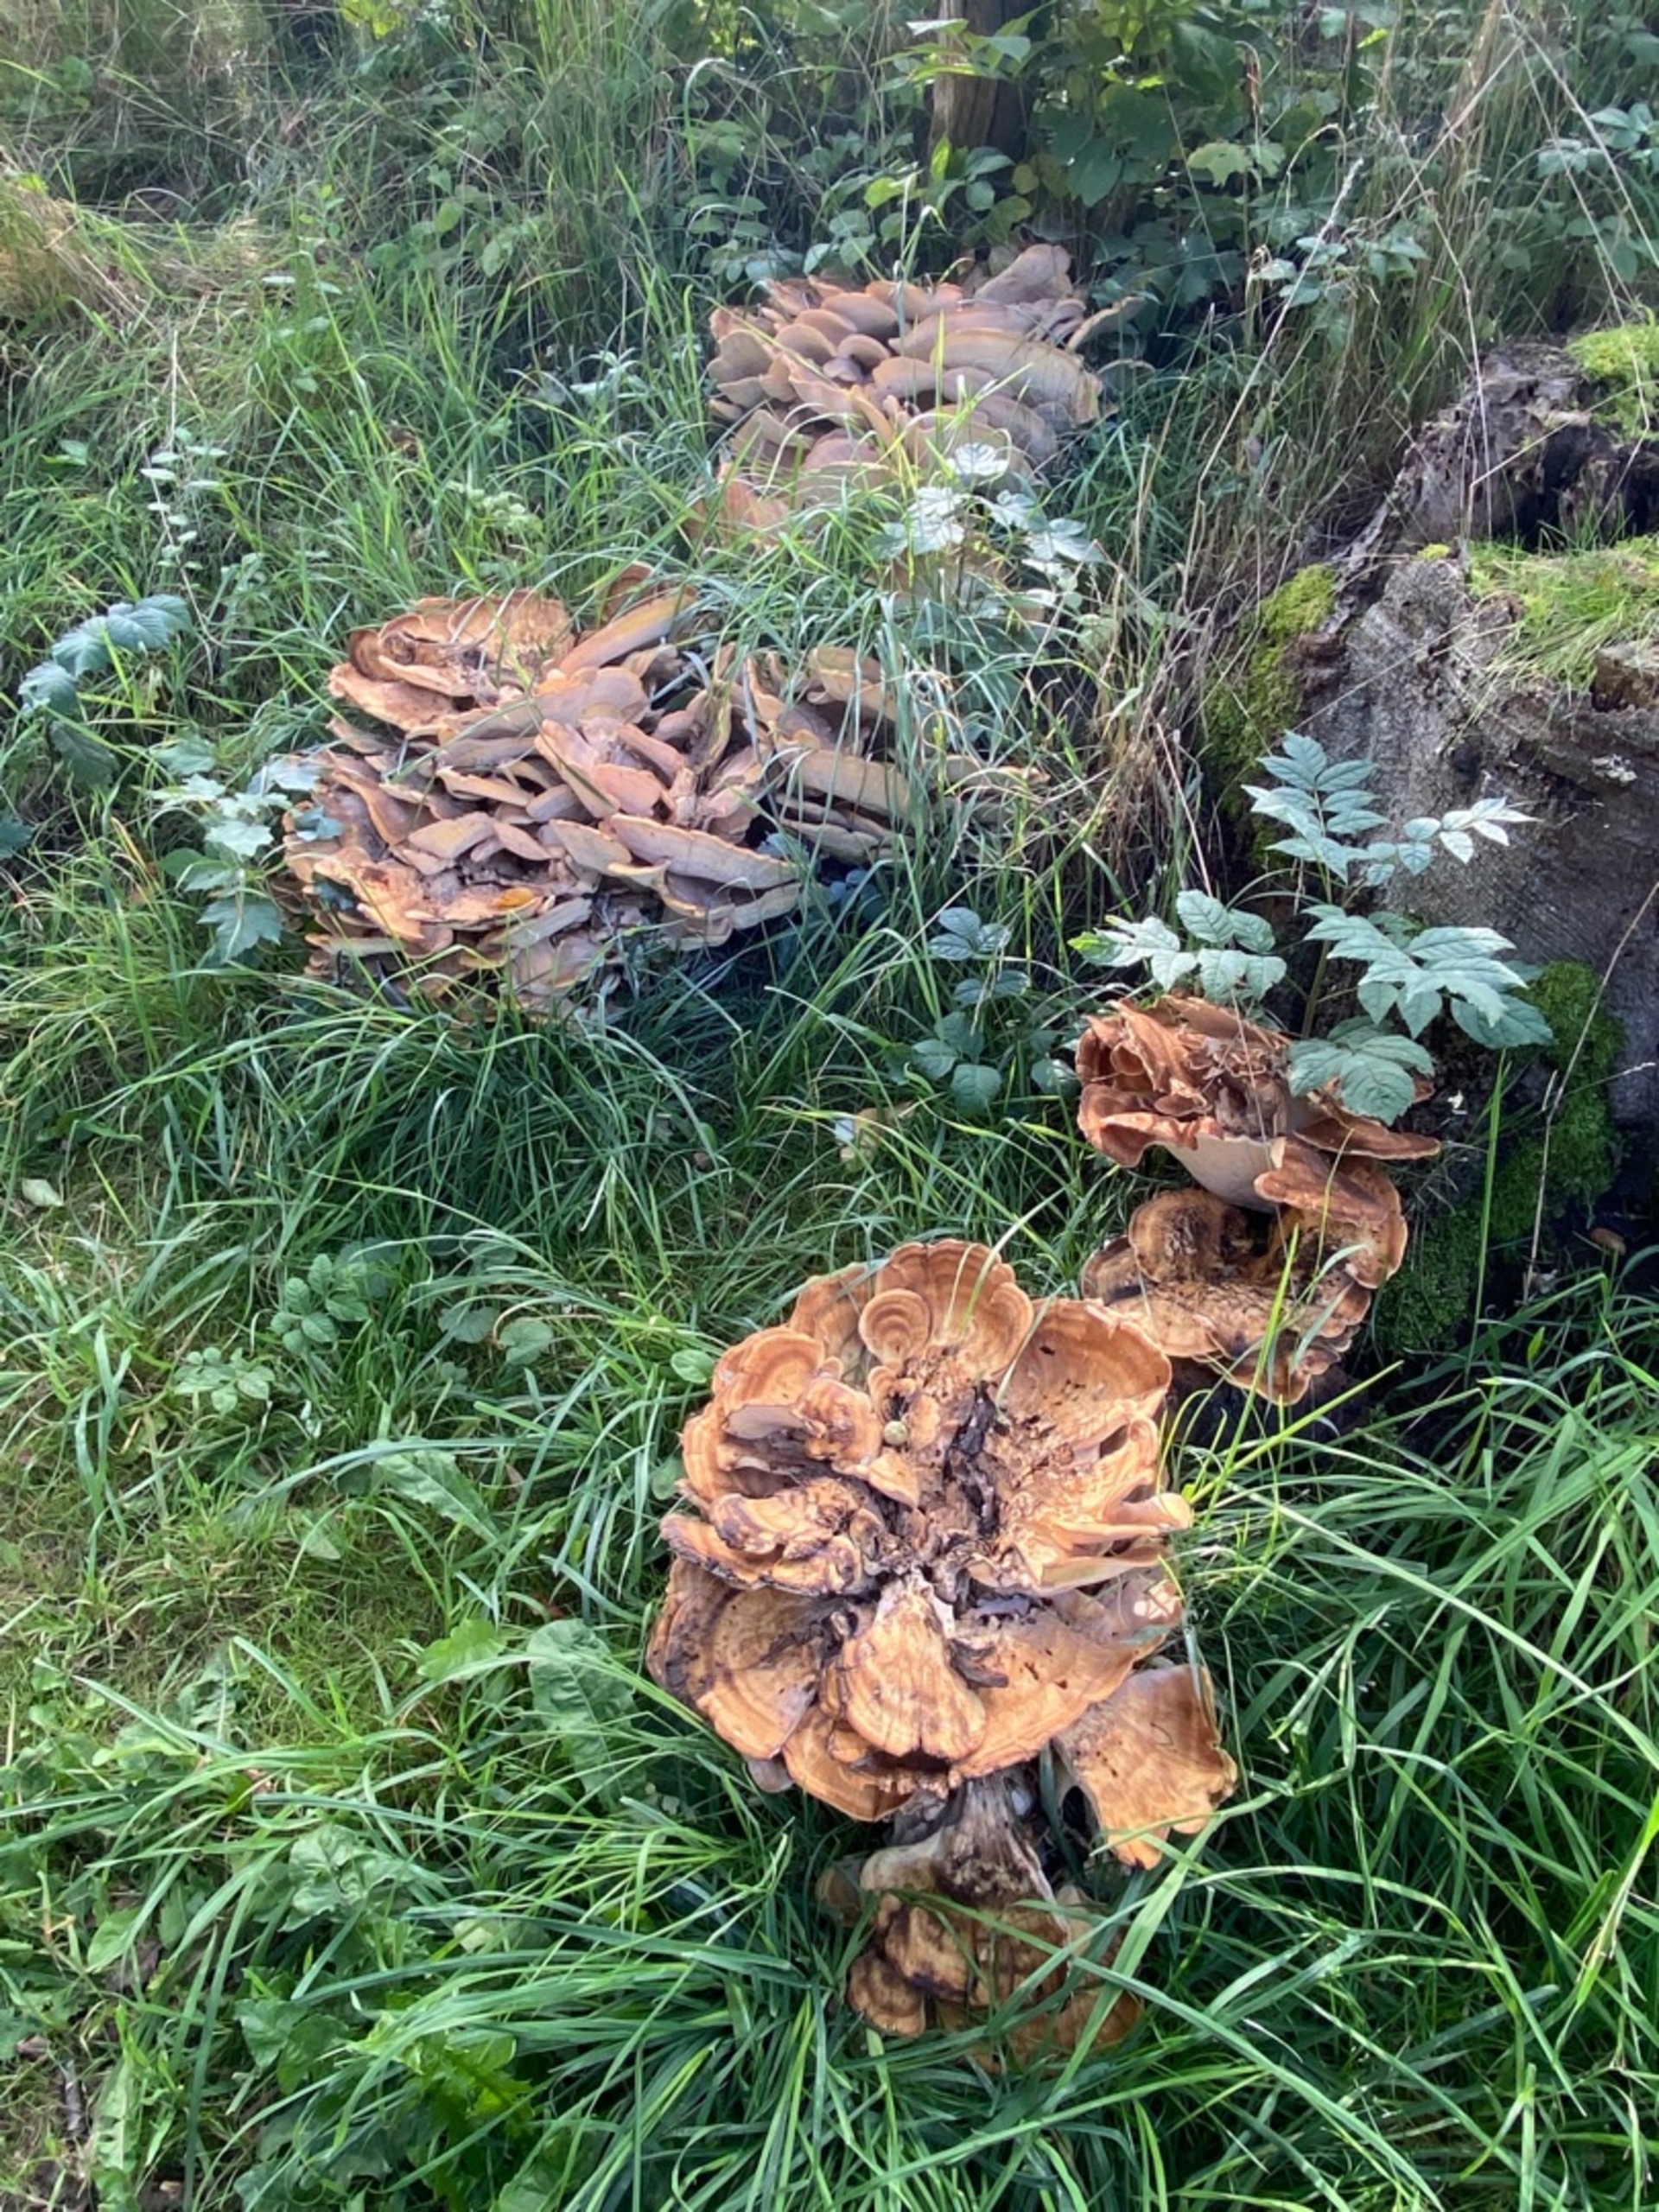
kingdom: Fungi
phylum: Basidiomycota
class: Agaricomycetes
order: Polyporales
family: Meripilaceae
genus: Meripilus
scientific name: Meripilus giganteus
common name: Kæmpeporesvamp
